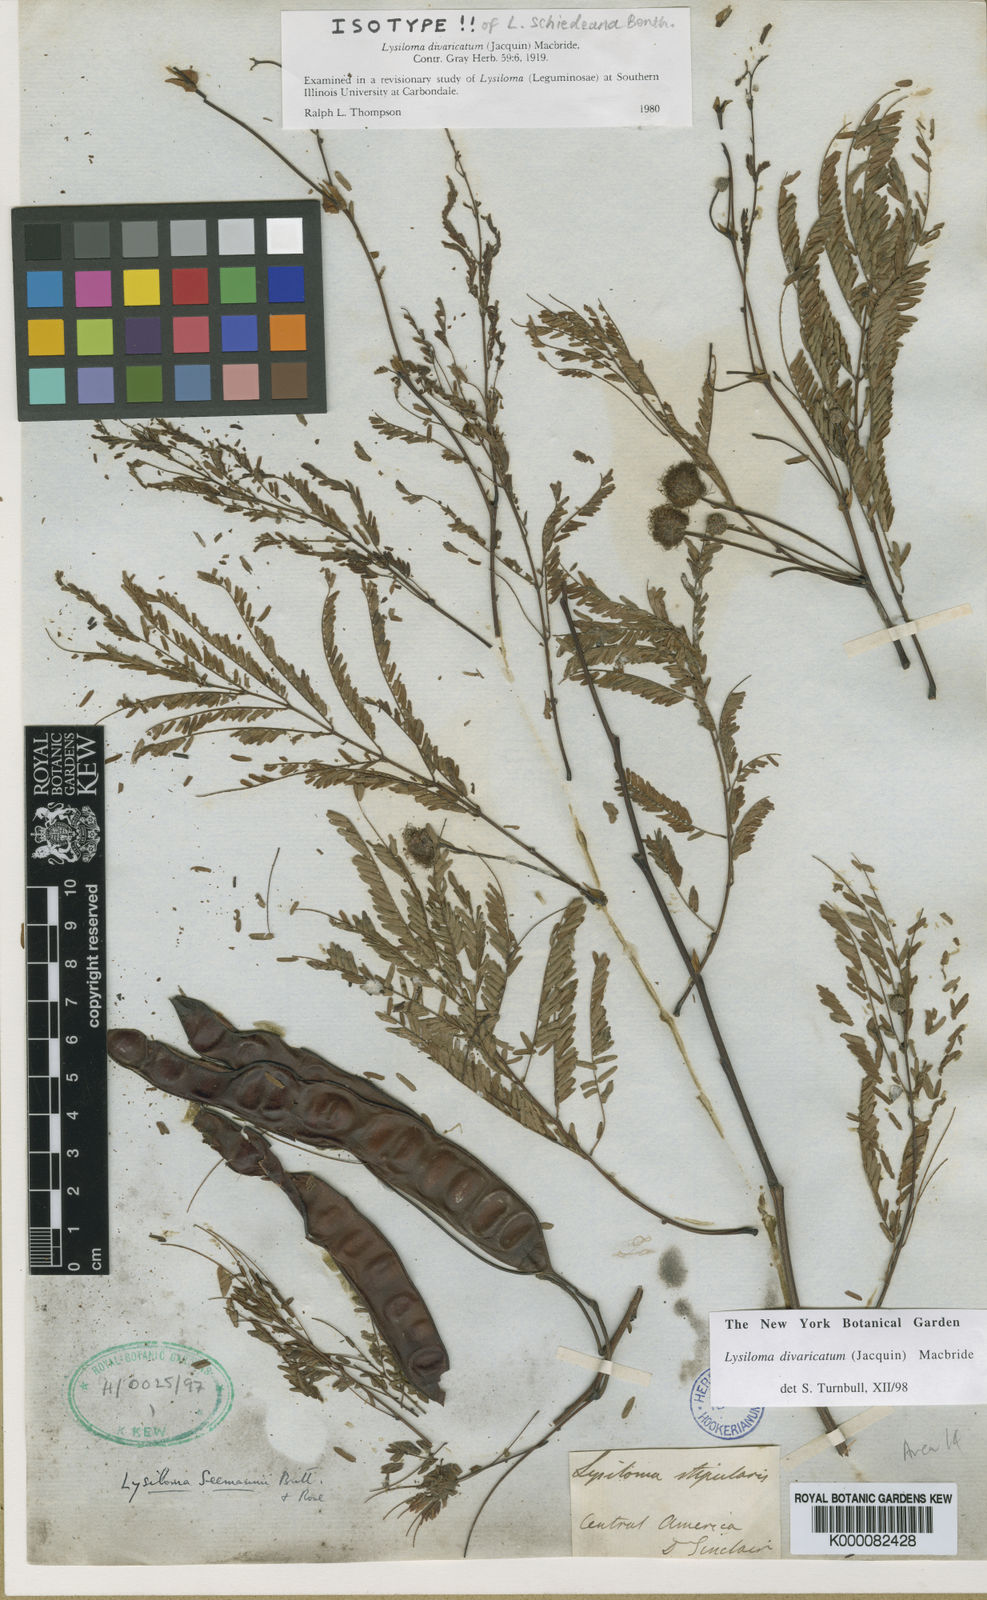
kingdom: Plantae
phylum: Tracheophyta
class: Magnoliopsida
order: Fabales
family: Fabaceae
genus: Lysiloma
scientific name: Lysiloma divaricatum
